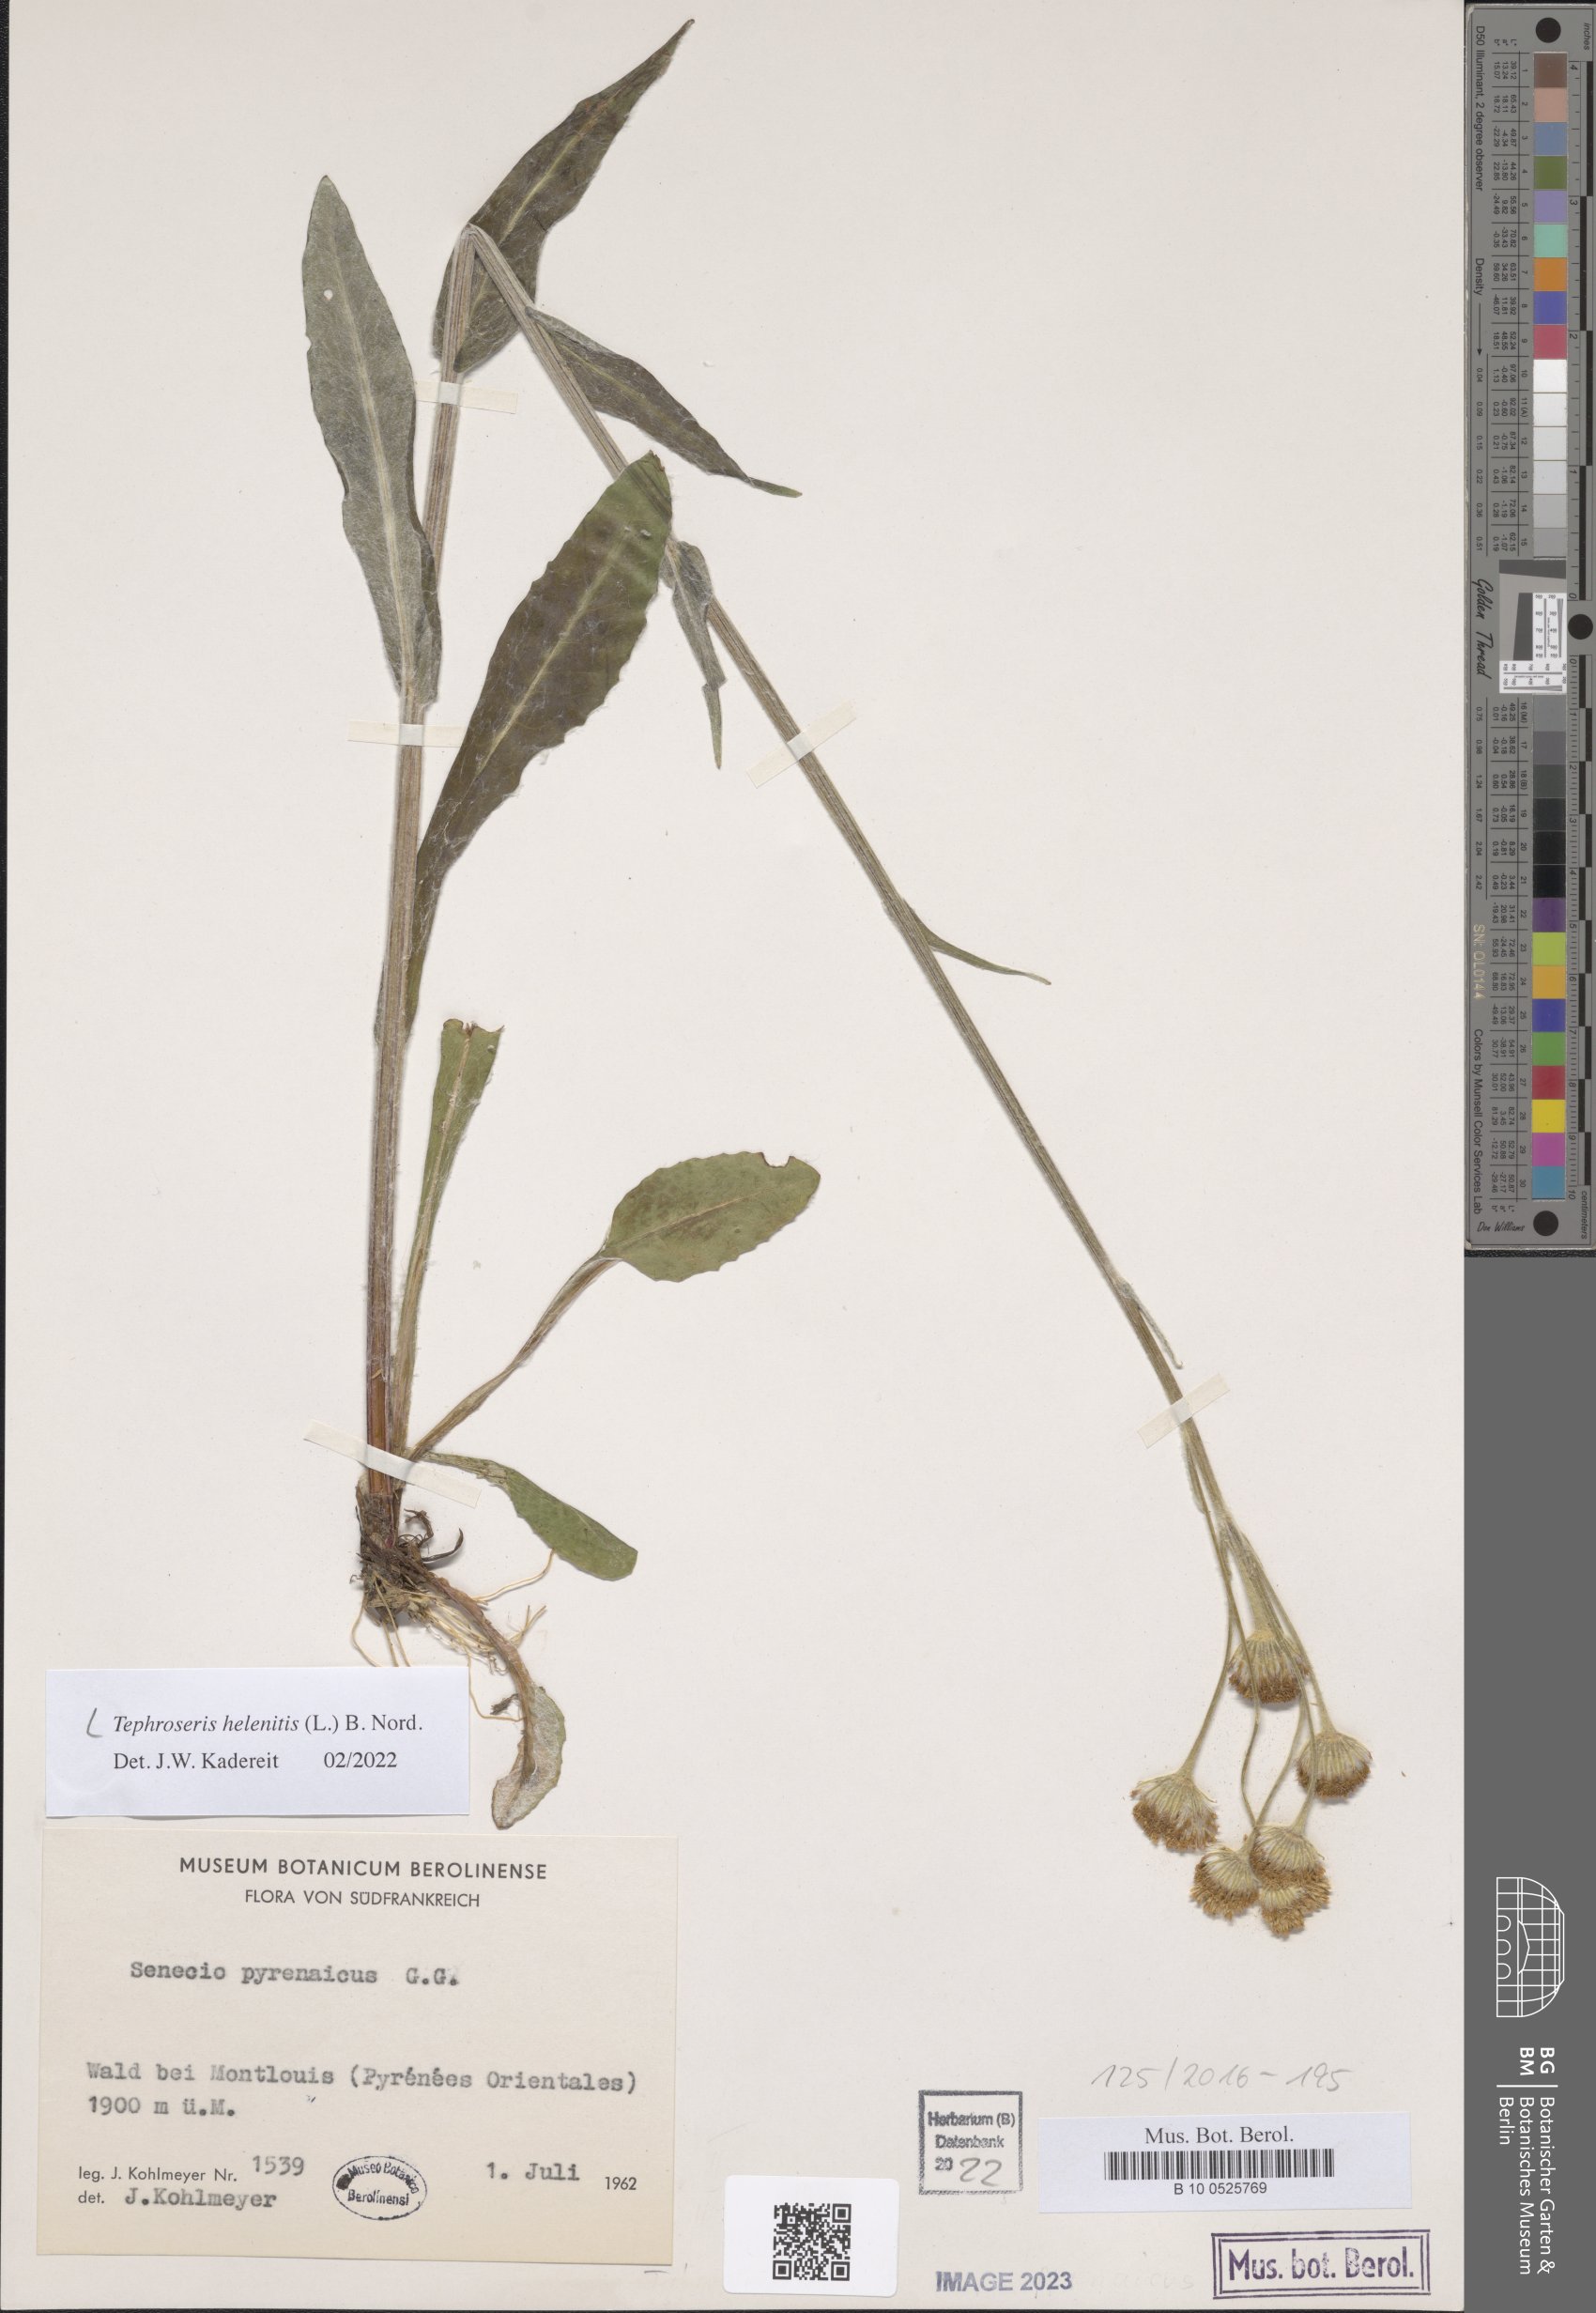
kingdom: Plantae
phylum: Tracheophyta
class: Magnoliopsida
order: Asterales
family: Asteraceae
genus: Tephroseris
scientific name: Tephroseris helenitis
